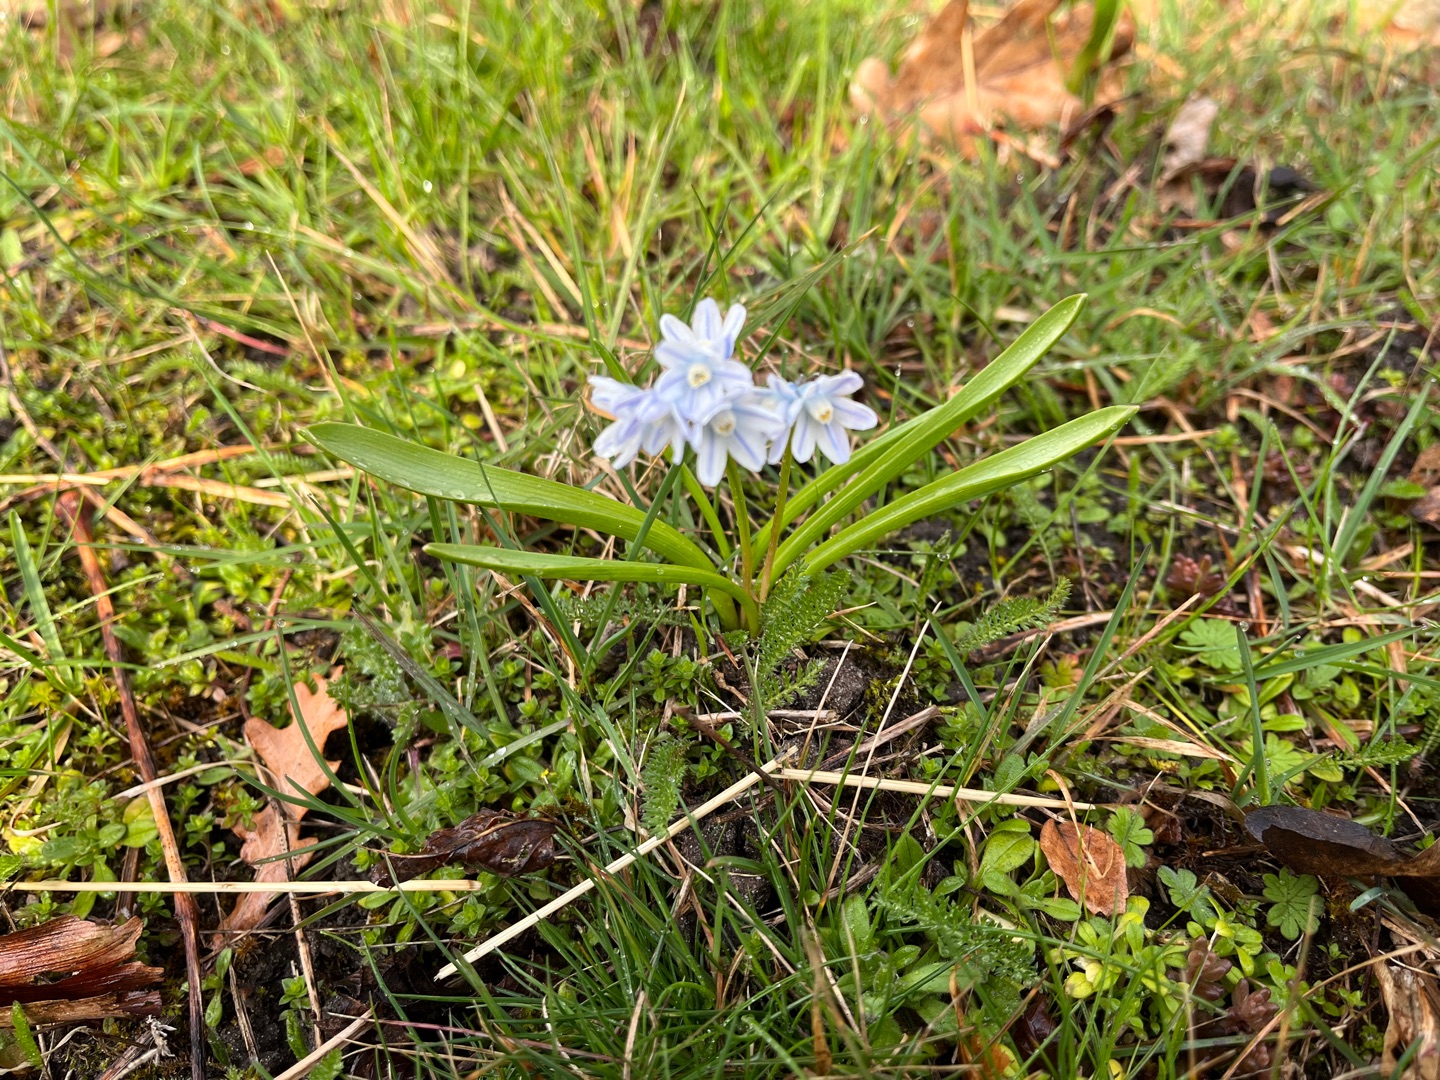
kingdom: Plantae
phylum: Tracheophyta
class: Liliopsida
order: Asparagales
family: Asparagaceae
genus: Puschkinia
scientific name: Puschkinia scilloides
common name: Porcelænshyacint
